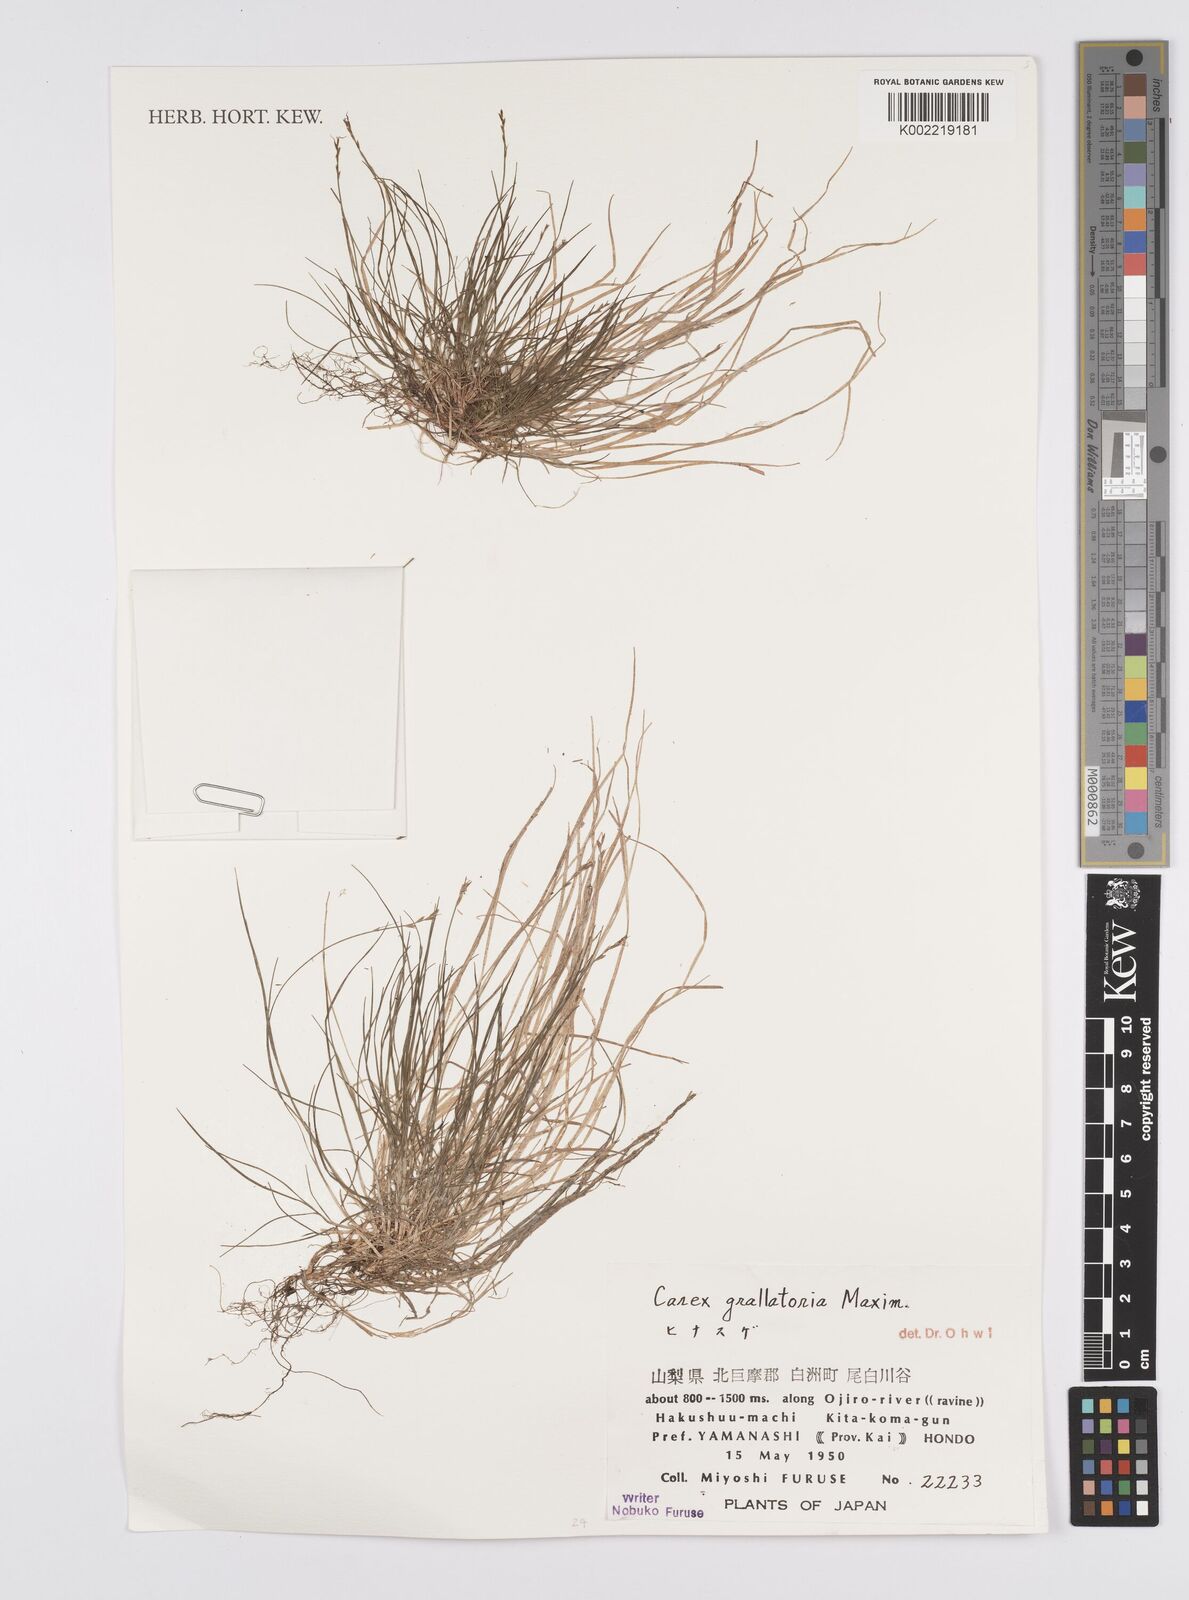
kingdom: Plantae
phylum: Tracheophyta
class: Liliopsida
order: Poales
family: Cyperaceae
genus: Carex
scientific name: Carex grallatoria
